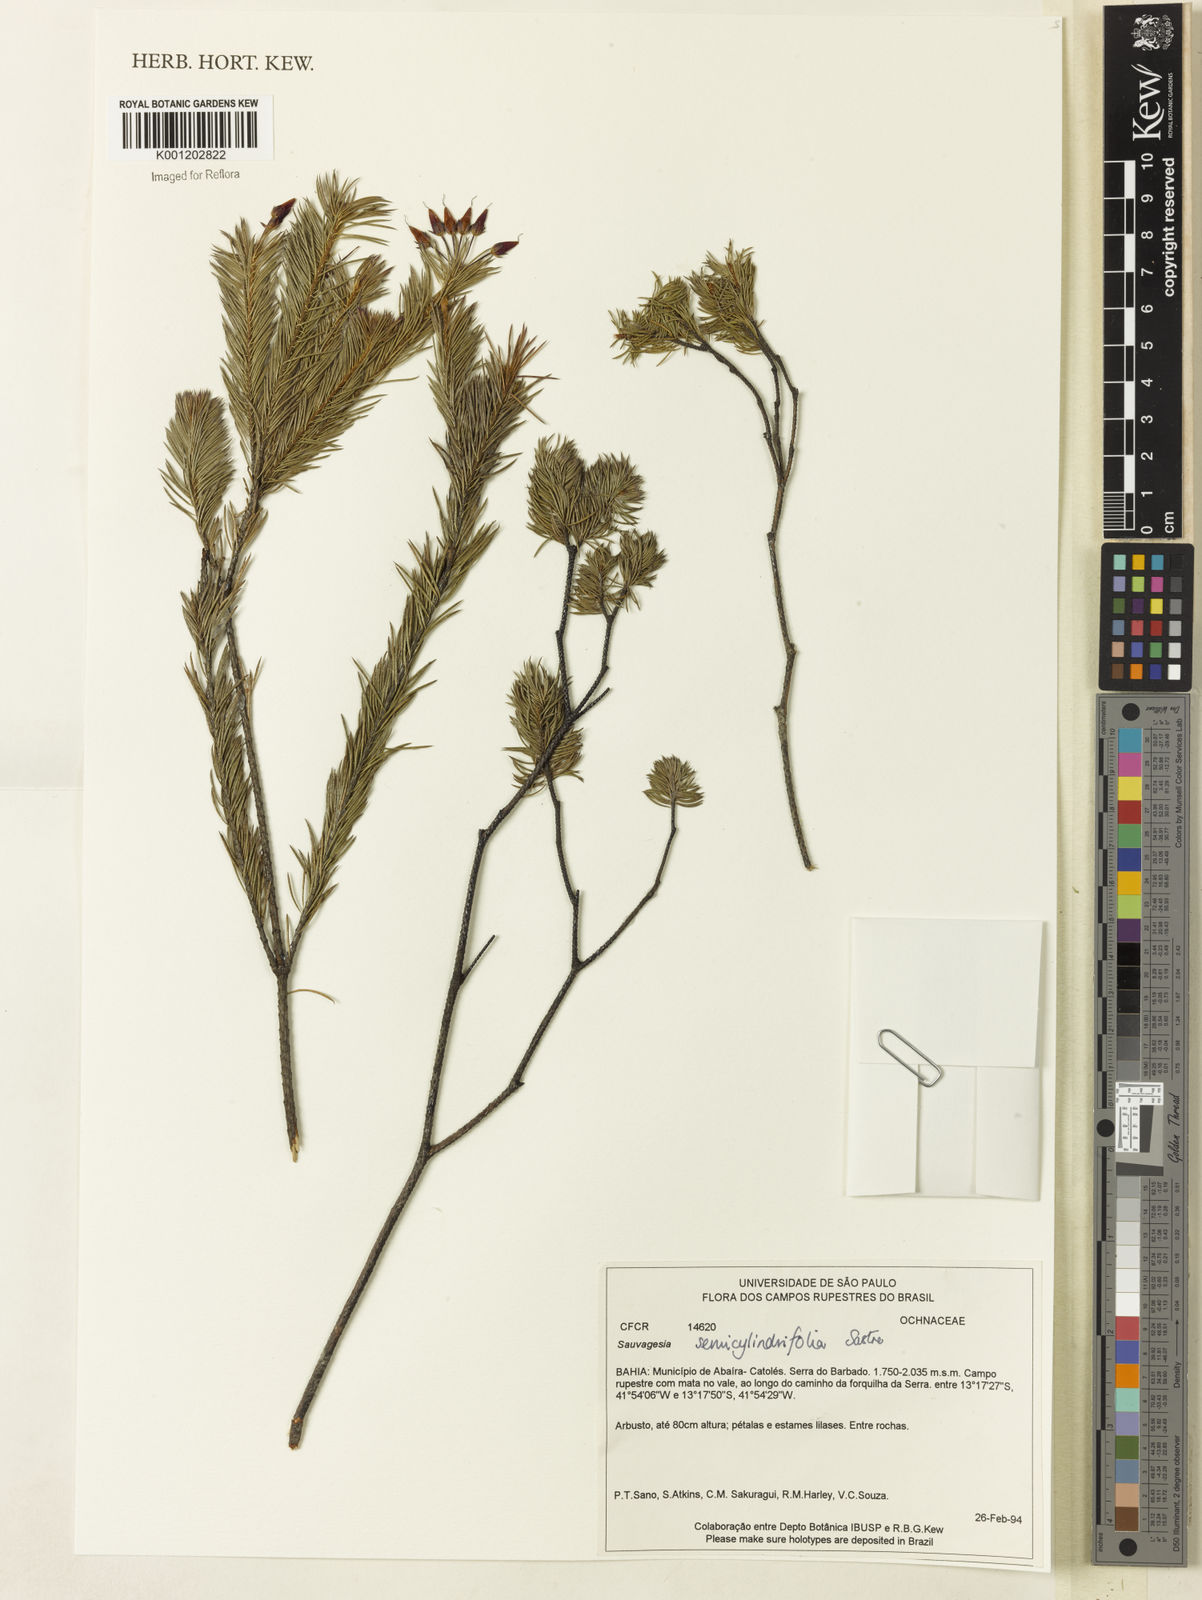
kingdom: Plantae
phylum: Tracheophyta
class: Magnoliopsida
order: Malpighiales
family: Ochnaceae
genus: Sauvagesia
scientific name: Sauvagesia semicylindrifolia
